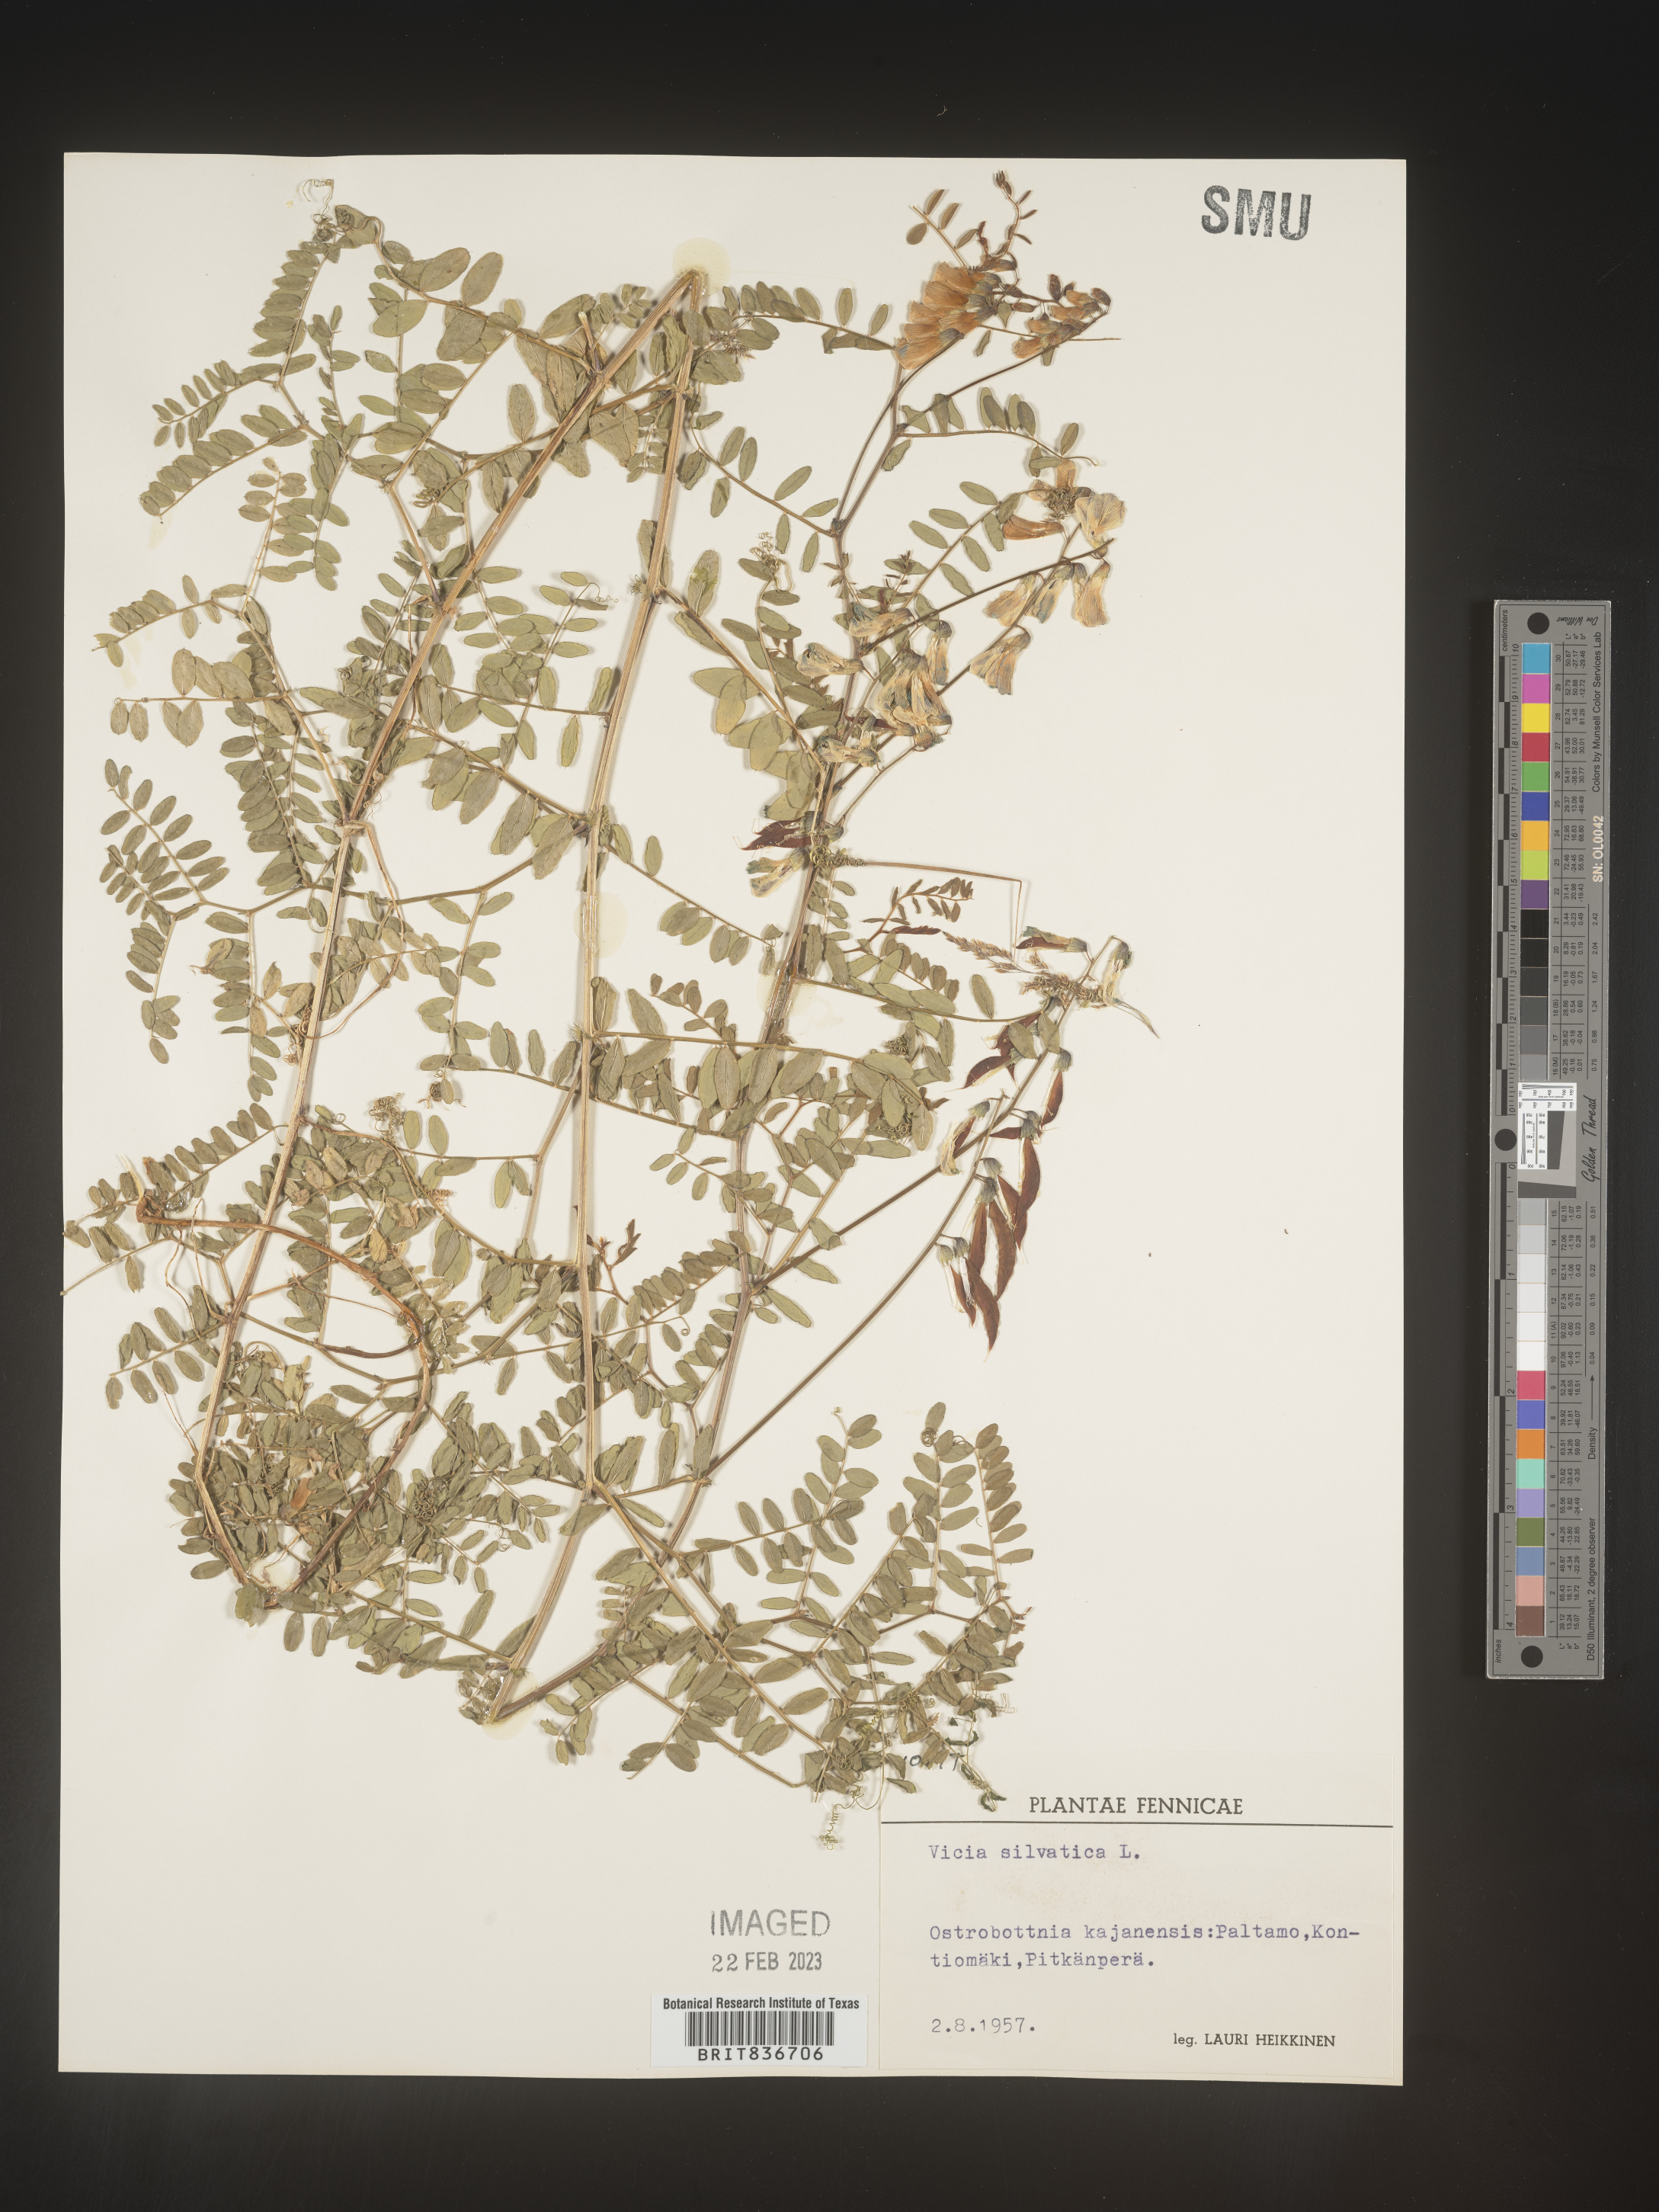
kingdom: Plantae
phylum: Tracheophyta
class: Magnoliopsida
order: Fabales
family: Fabaceae
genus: Vicia
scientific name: Vicia sylvatica
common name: Wood vetch
